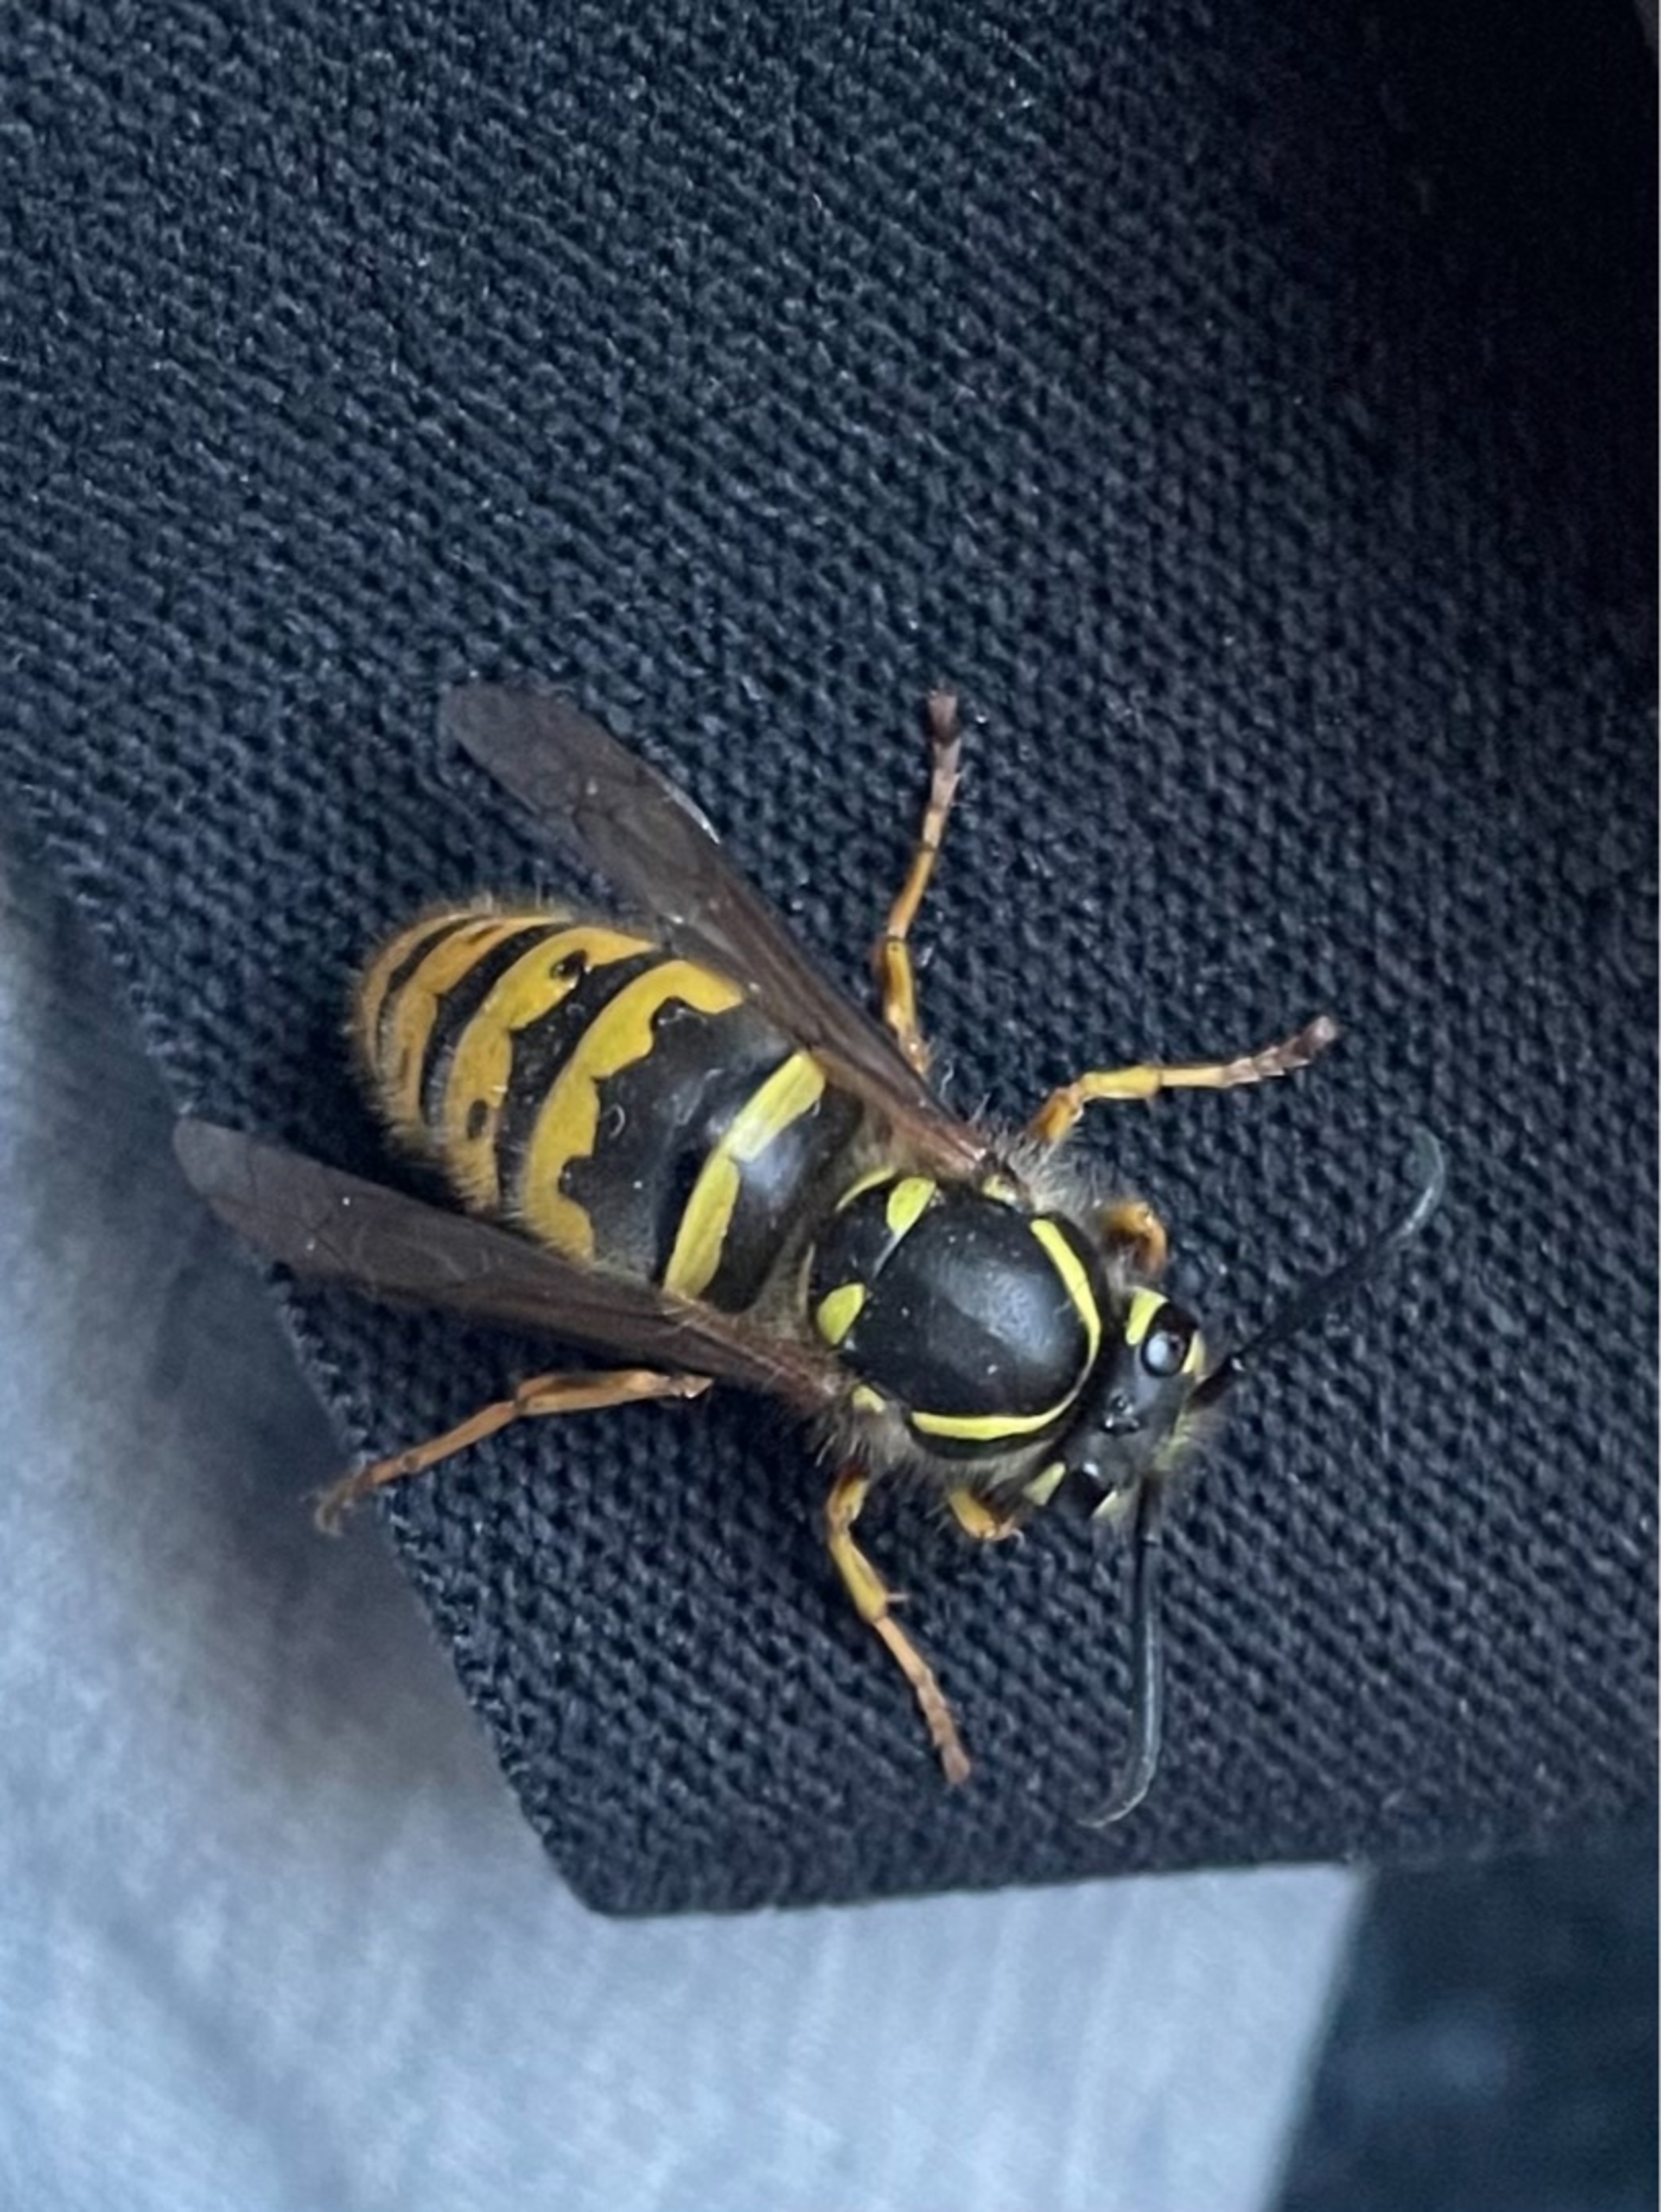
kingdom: Animalia
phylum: Arthropoda
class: Insecta
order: Hymenoptera
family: Vespidae
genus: Vespula
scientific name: Vespula vulgaris
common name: Almindelig gedehams
